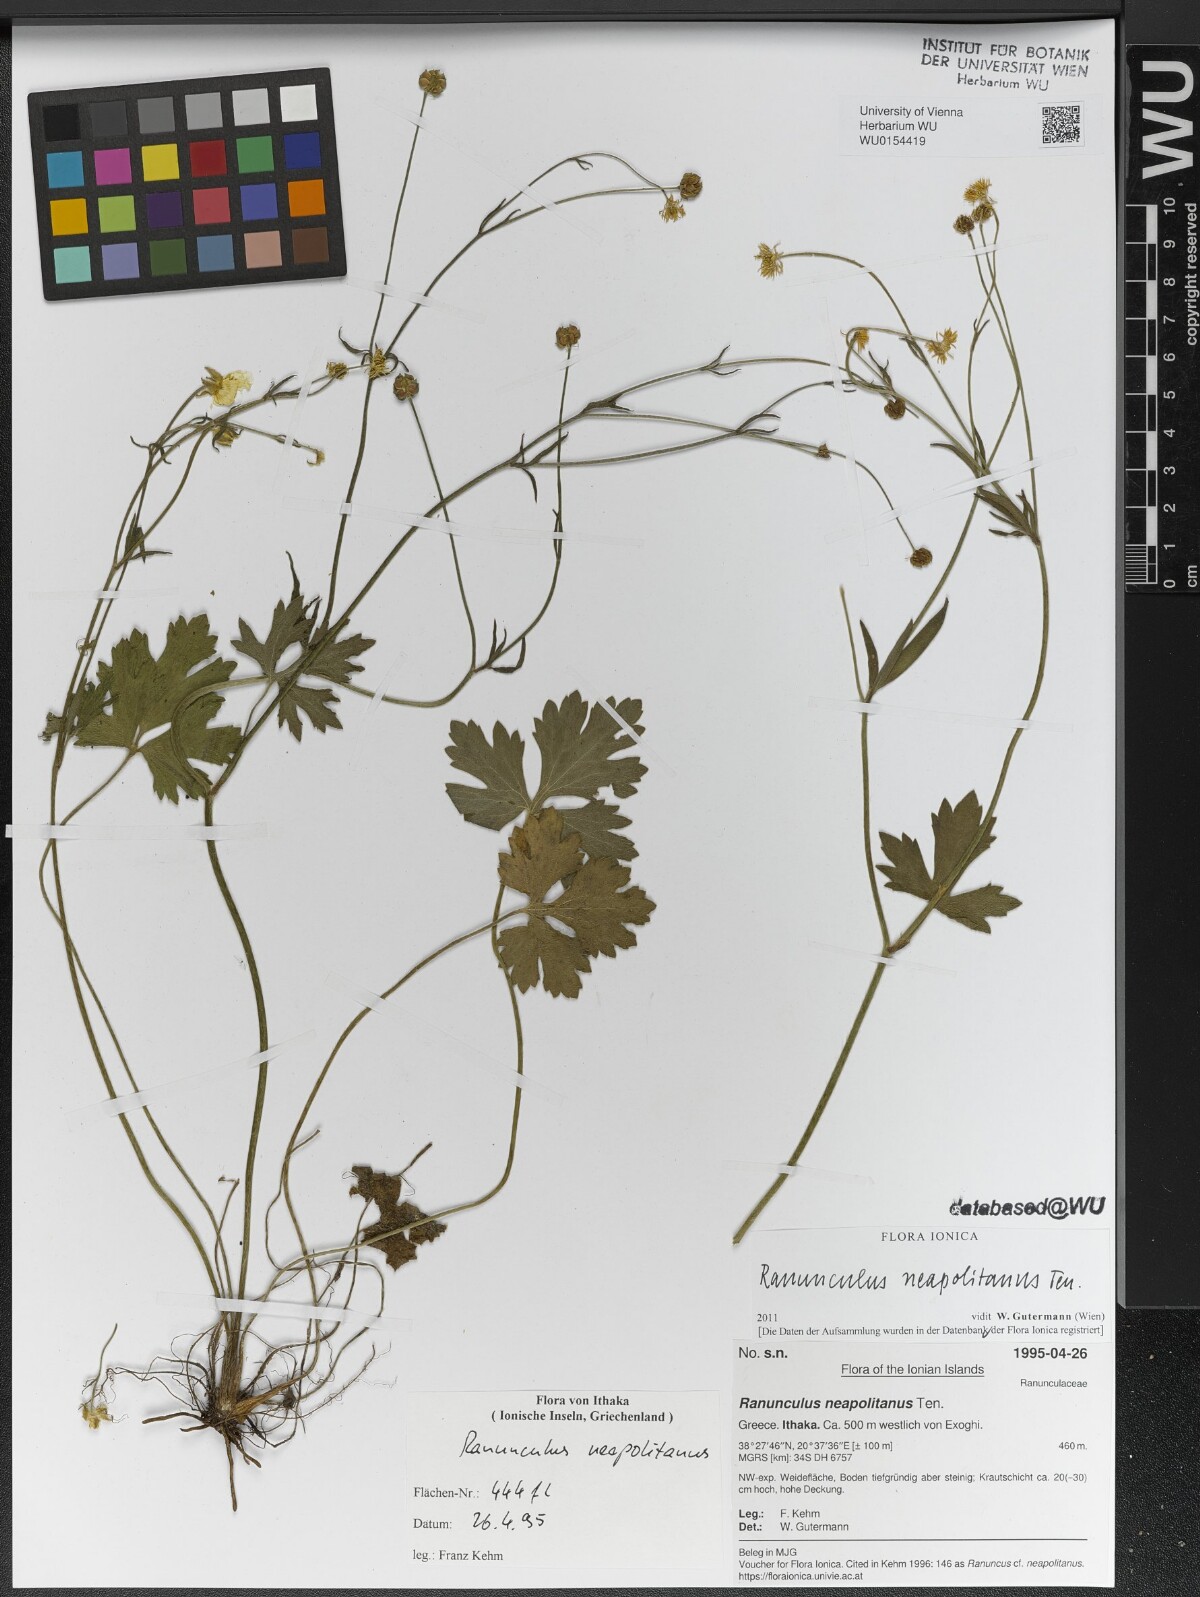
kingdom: Plantae
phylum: Tracheophyta
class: Magnoliopsida
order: Ranunculales
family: Ranunculaceae
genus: Ranunculus
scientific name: Ranunculus neapolitanus
